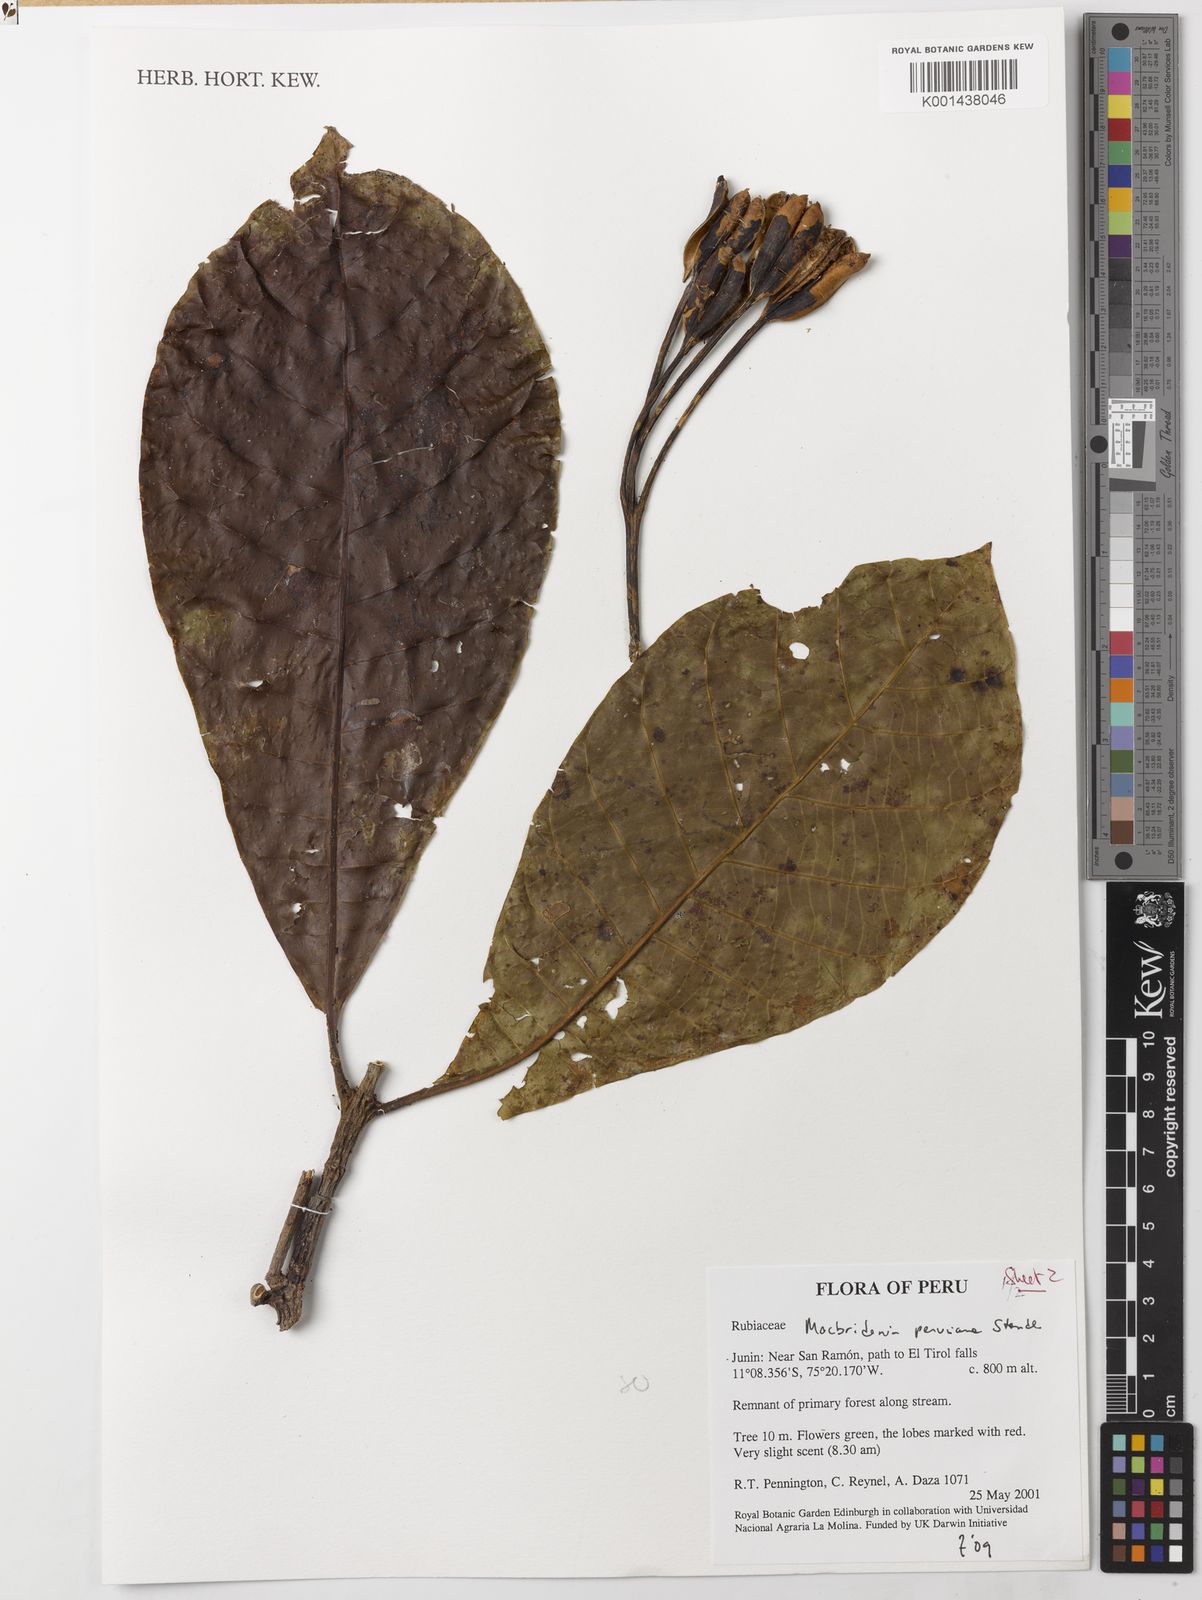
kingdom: Plantae
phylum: Tracheophyta
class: Magnoliopsida
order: Gentianales
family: Rubiaceae
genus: Macbrideina
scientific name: Macbrideina peruviana
